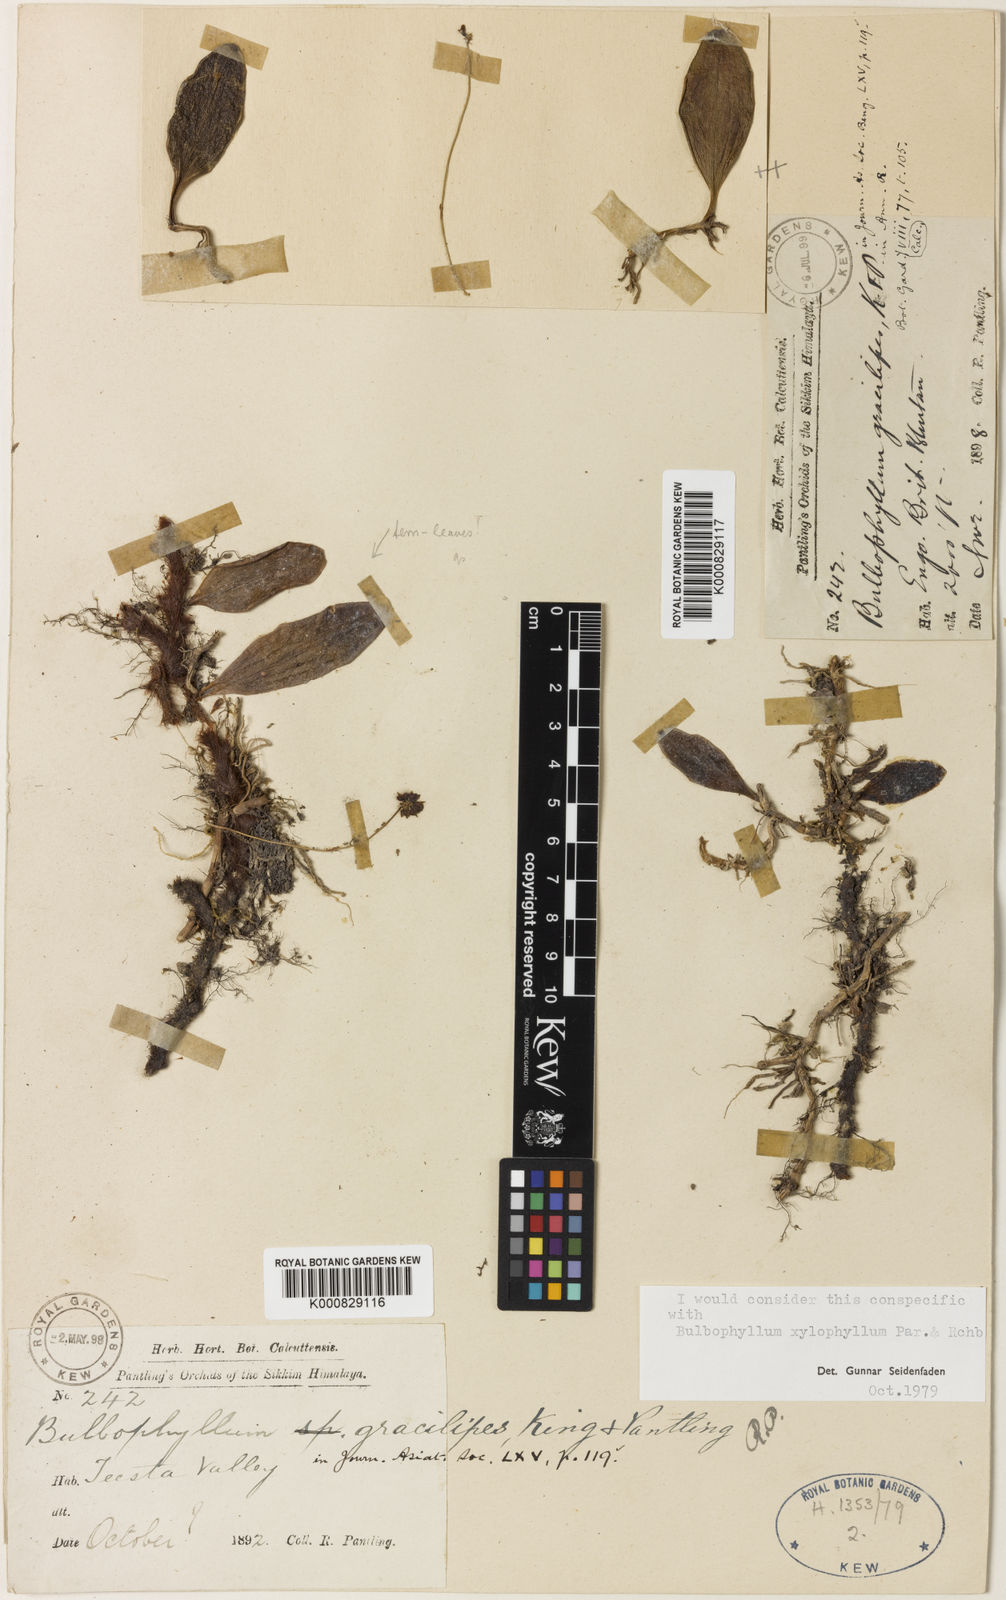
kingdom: Plantae
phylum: Tracheophyta
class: Liliopsida
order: Asparagales
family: Orchidaceae
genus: Bulbophyllum
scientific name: Bulbophyllum gracilipes
